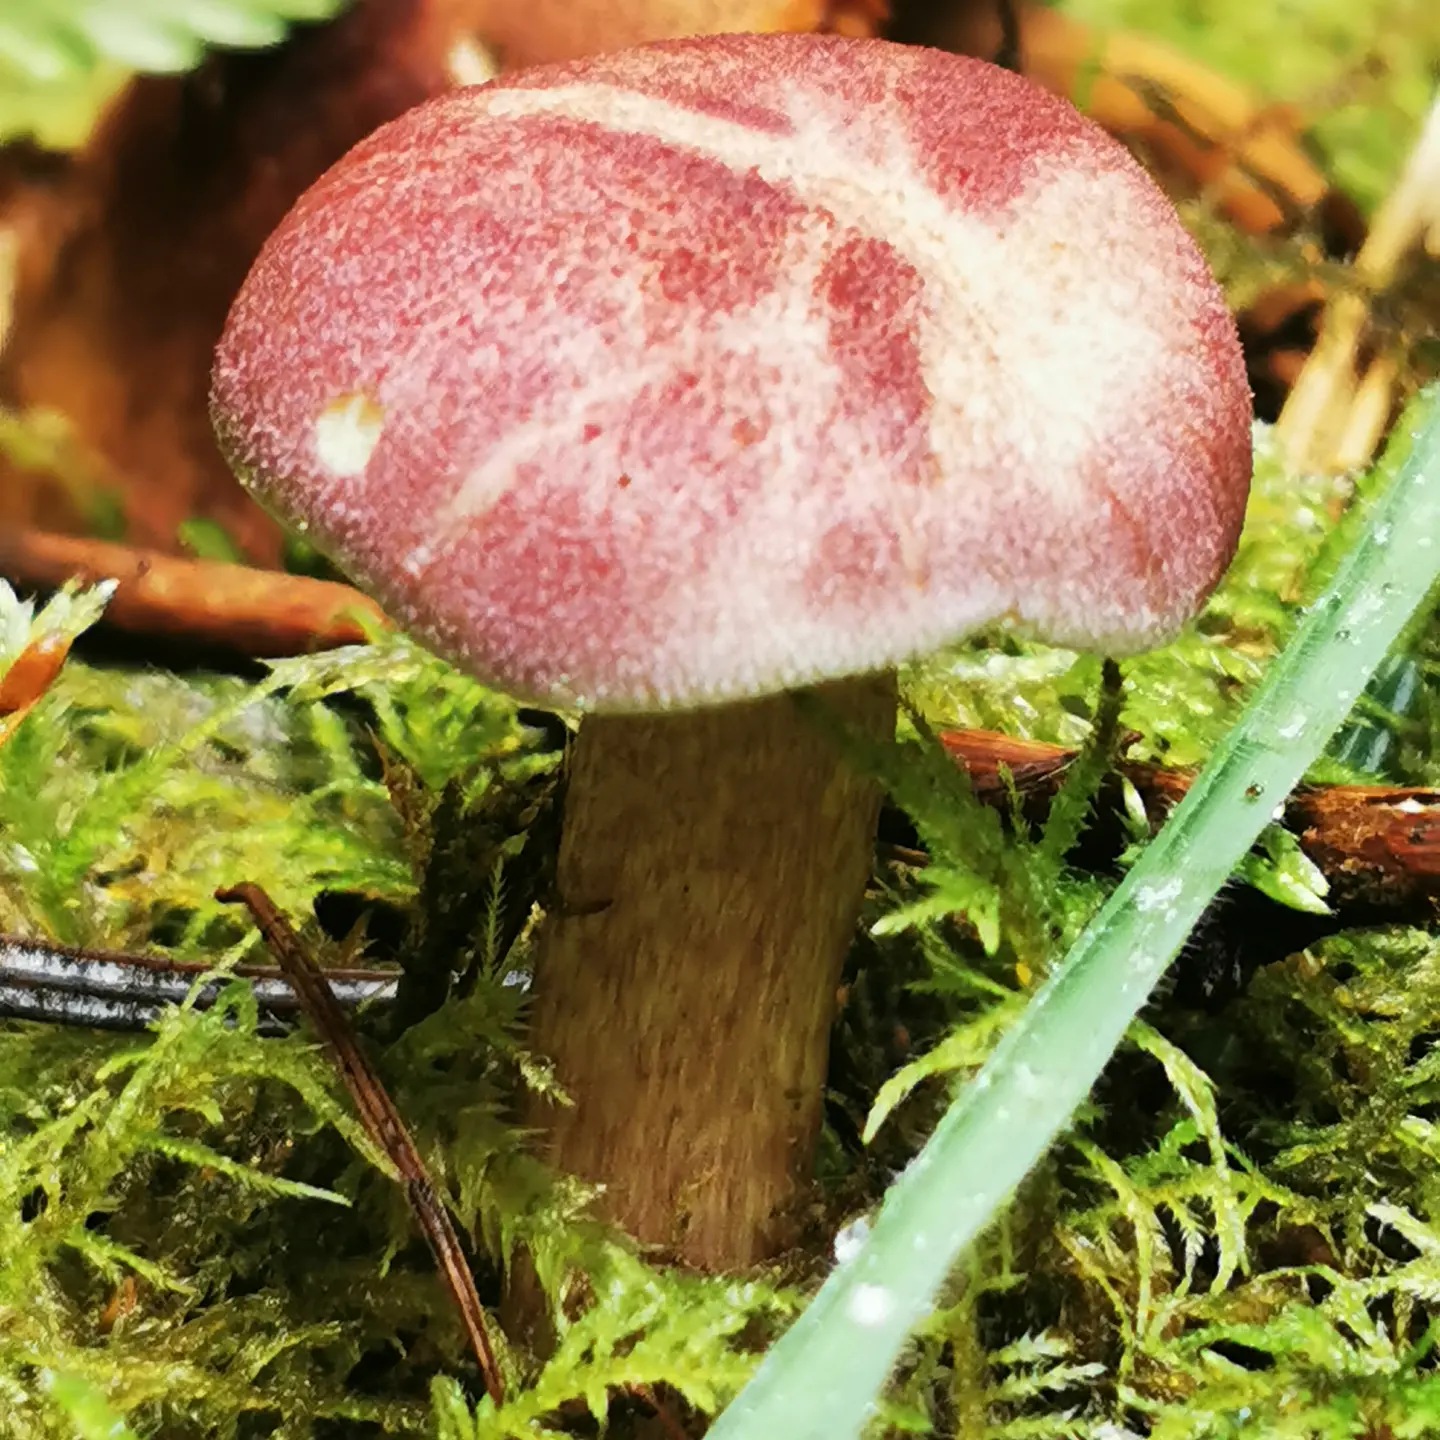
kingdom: Fungi
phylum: Basidiomycota
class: Agaricomycetes
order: Agaricales
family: Tricholomataceae
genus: Tricholomopsis
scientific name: Tricholomopsis rutilans
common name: purpur-væbnerhat
